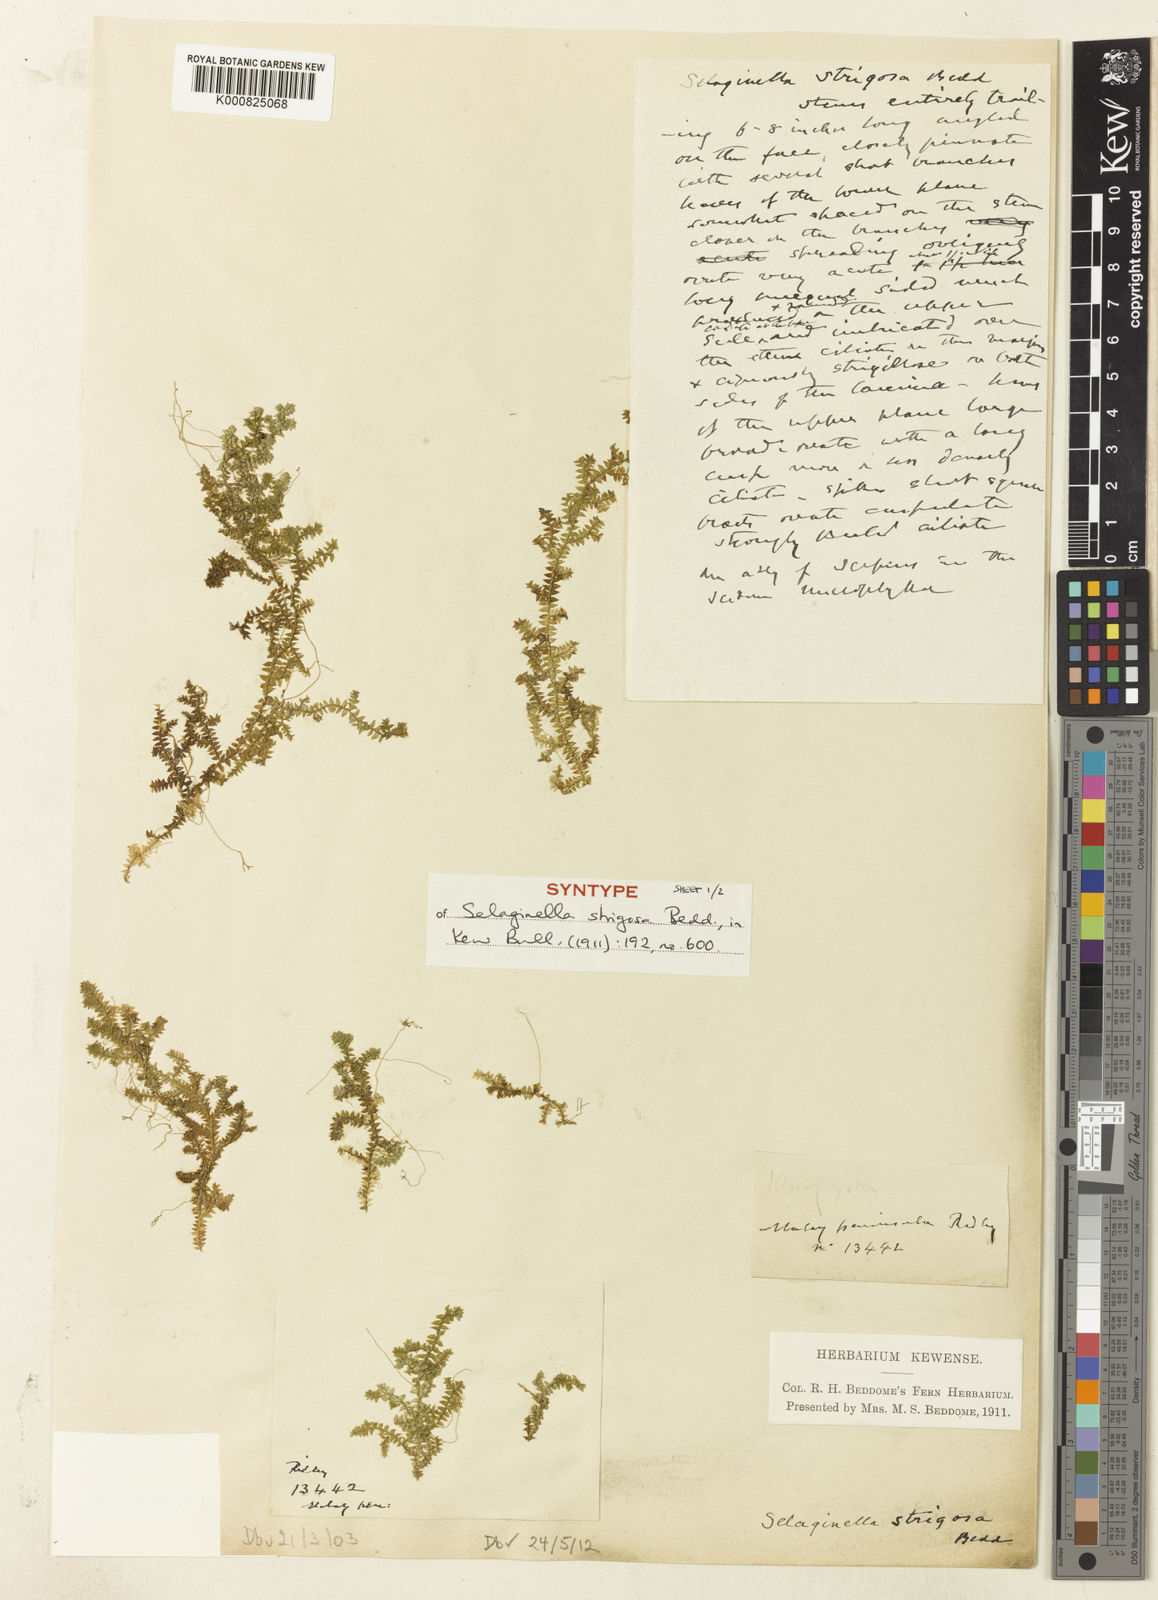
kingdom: Plantae
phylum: Tracheophyta
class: Lycopodiopsida
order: Selaginellales
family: Selaginellaceae
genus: Selaginella
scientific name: Selaginella strigosa
